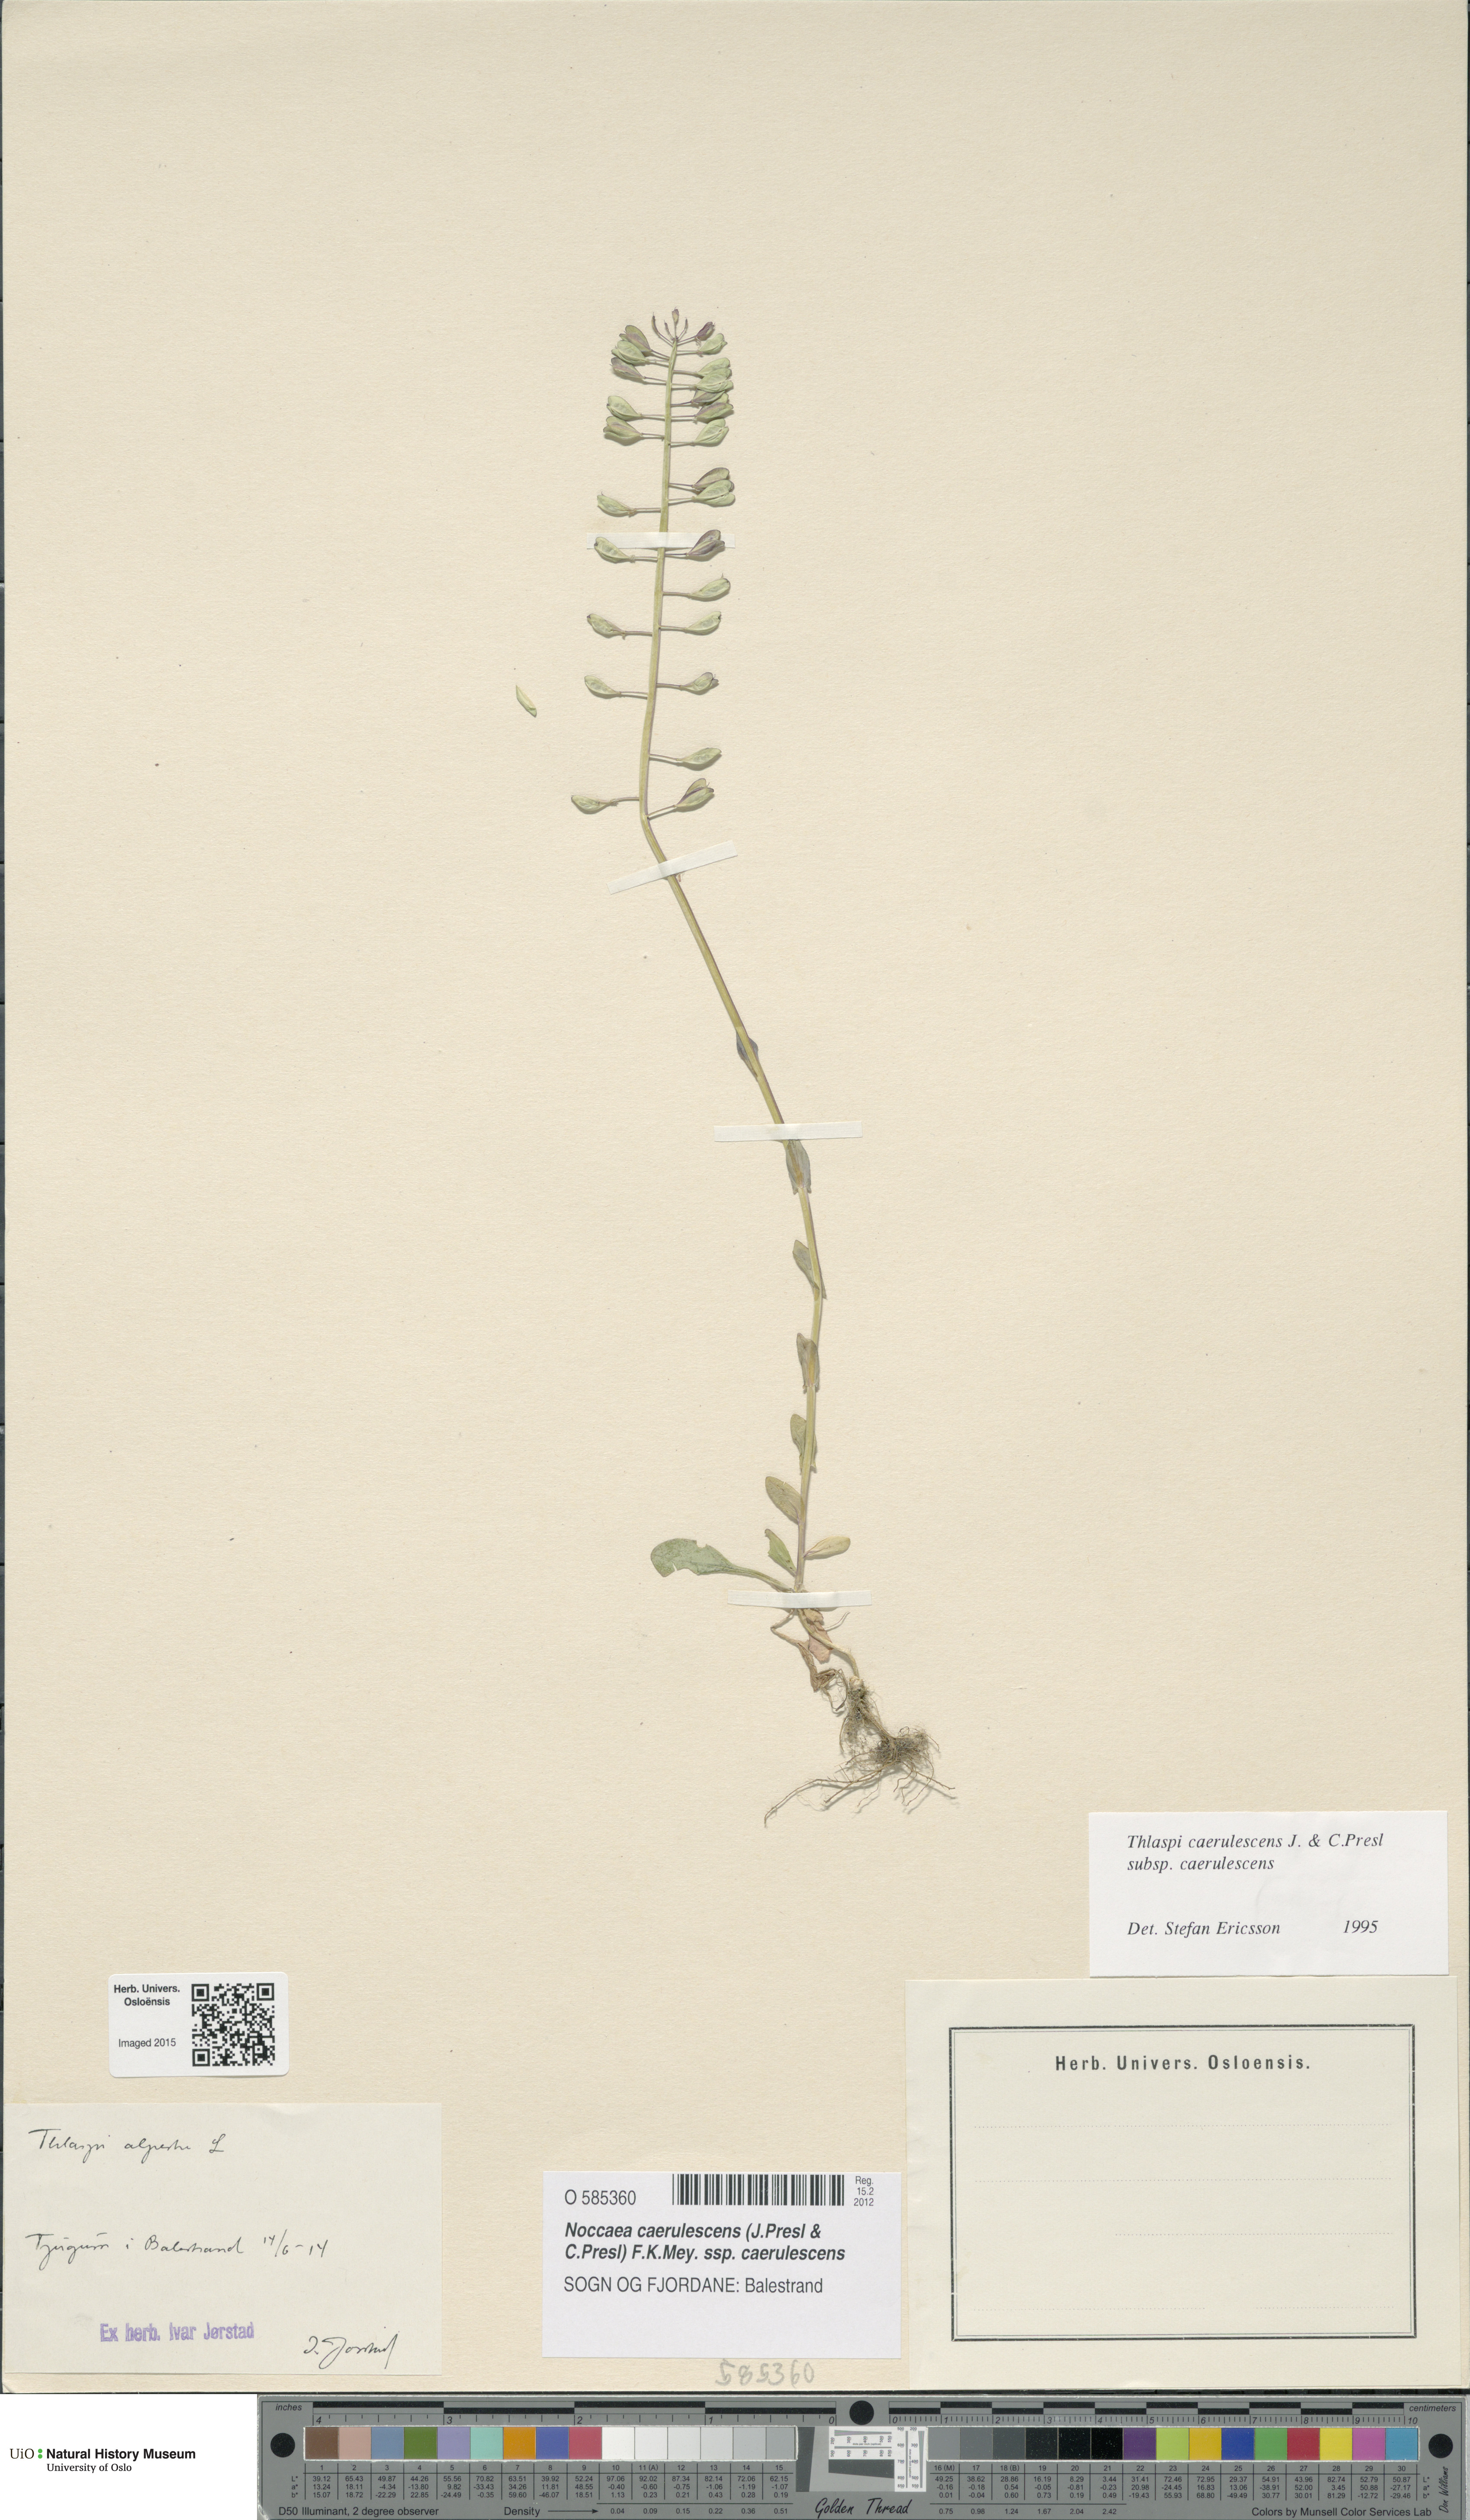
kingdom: Plantae
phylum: Tracheophyta
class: Magnoliopsida
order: Brassicales
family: Brassicaceae
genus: Noccaea
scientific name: Noccaea caerulescens
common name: Alpine pennycress
